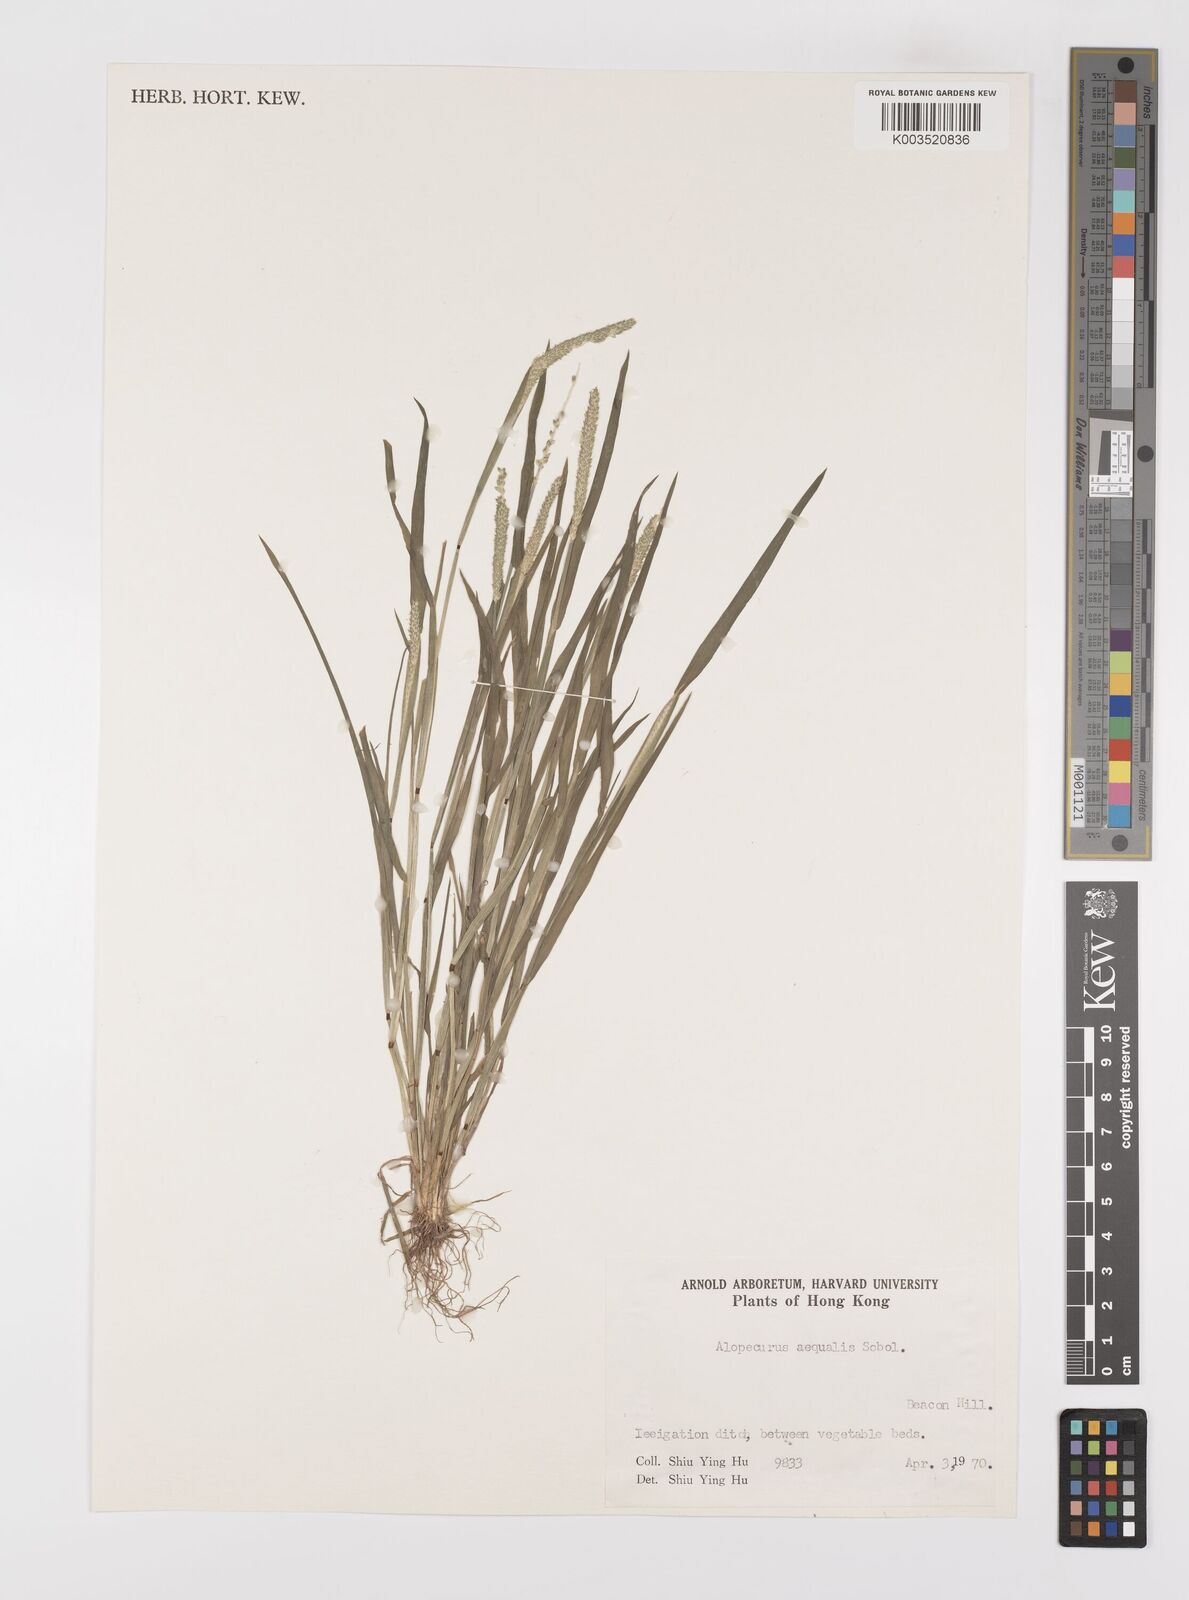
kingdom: Plantae
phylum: Tracheophyta
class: Liliopsida
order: Poales
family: Poaceae
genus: Alopecurus
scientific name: Alopecurus aequalis
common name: Orange foxtail
